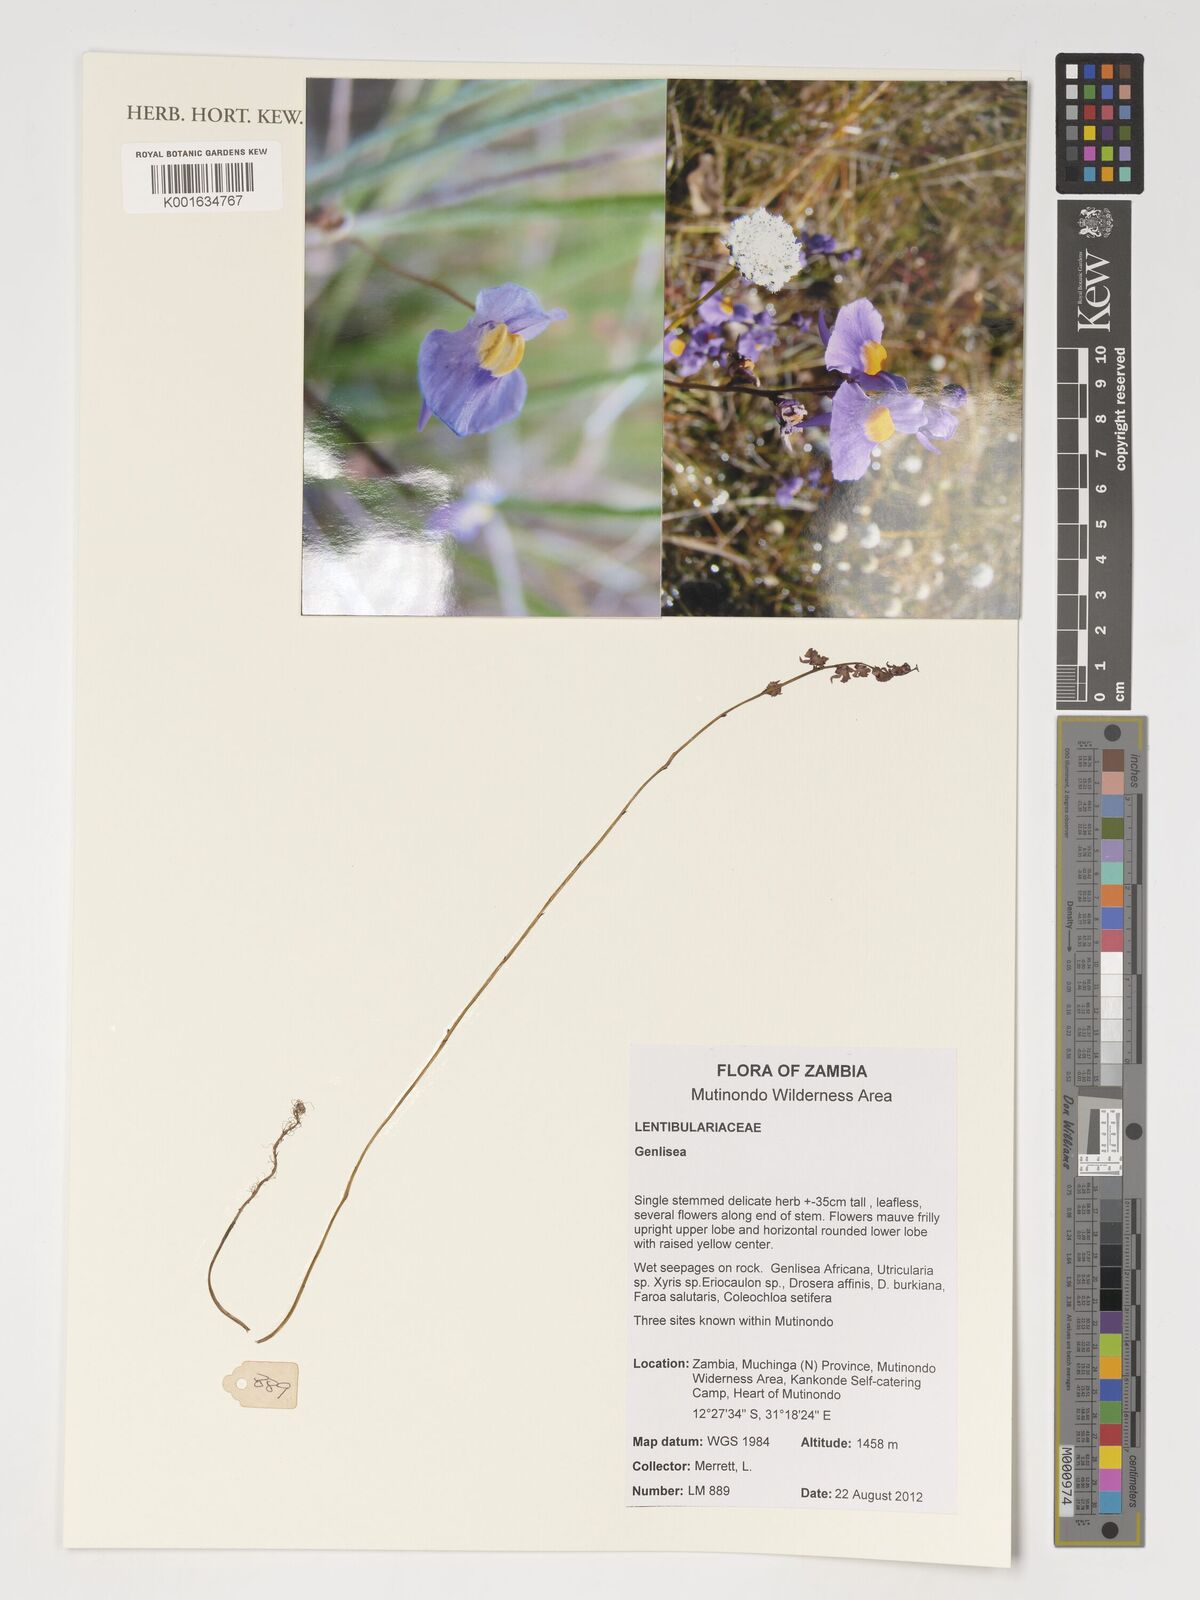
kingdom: Plantae
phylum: Tracheophyta
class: Magnoliopsida
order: Lamiales
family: Lentibulariaceae
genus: Genlisea
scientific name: Genlisea
